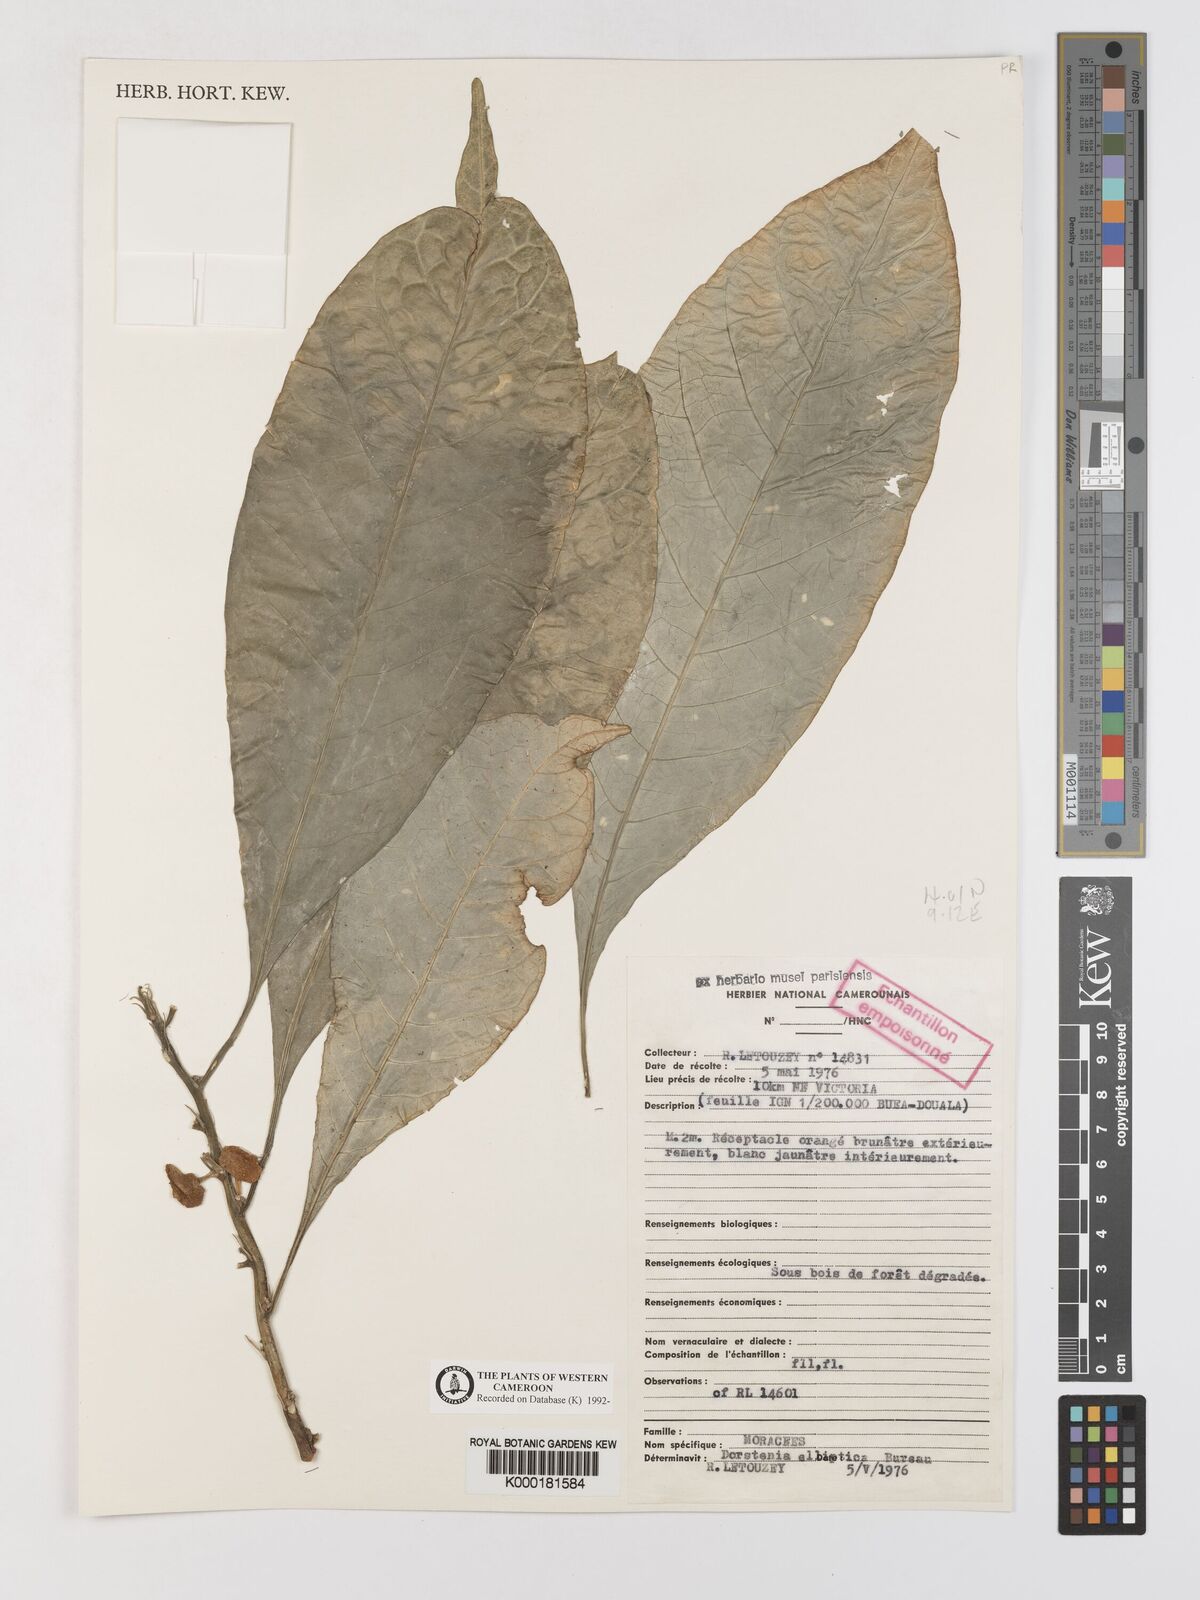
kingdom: Plantae
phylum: Tracheophyta
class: Magnoliopsida
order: Rosales
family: Moraceae
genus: Dorstenia
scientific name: Dorstenia elliptica
